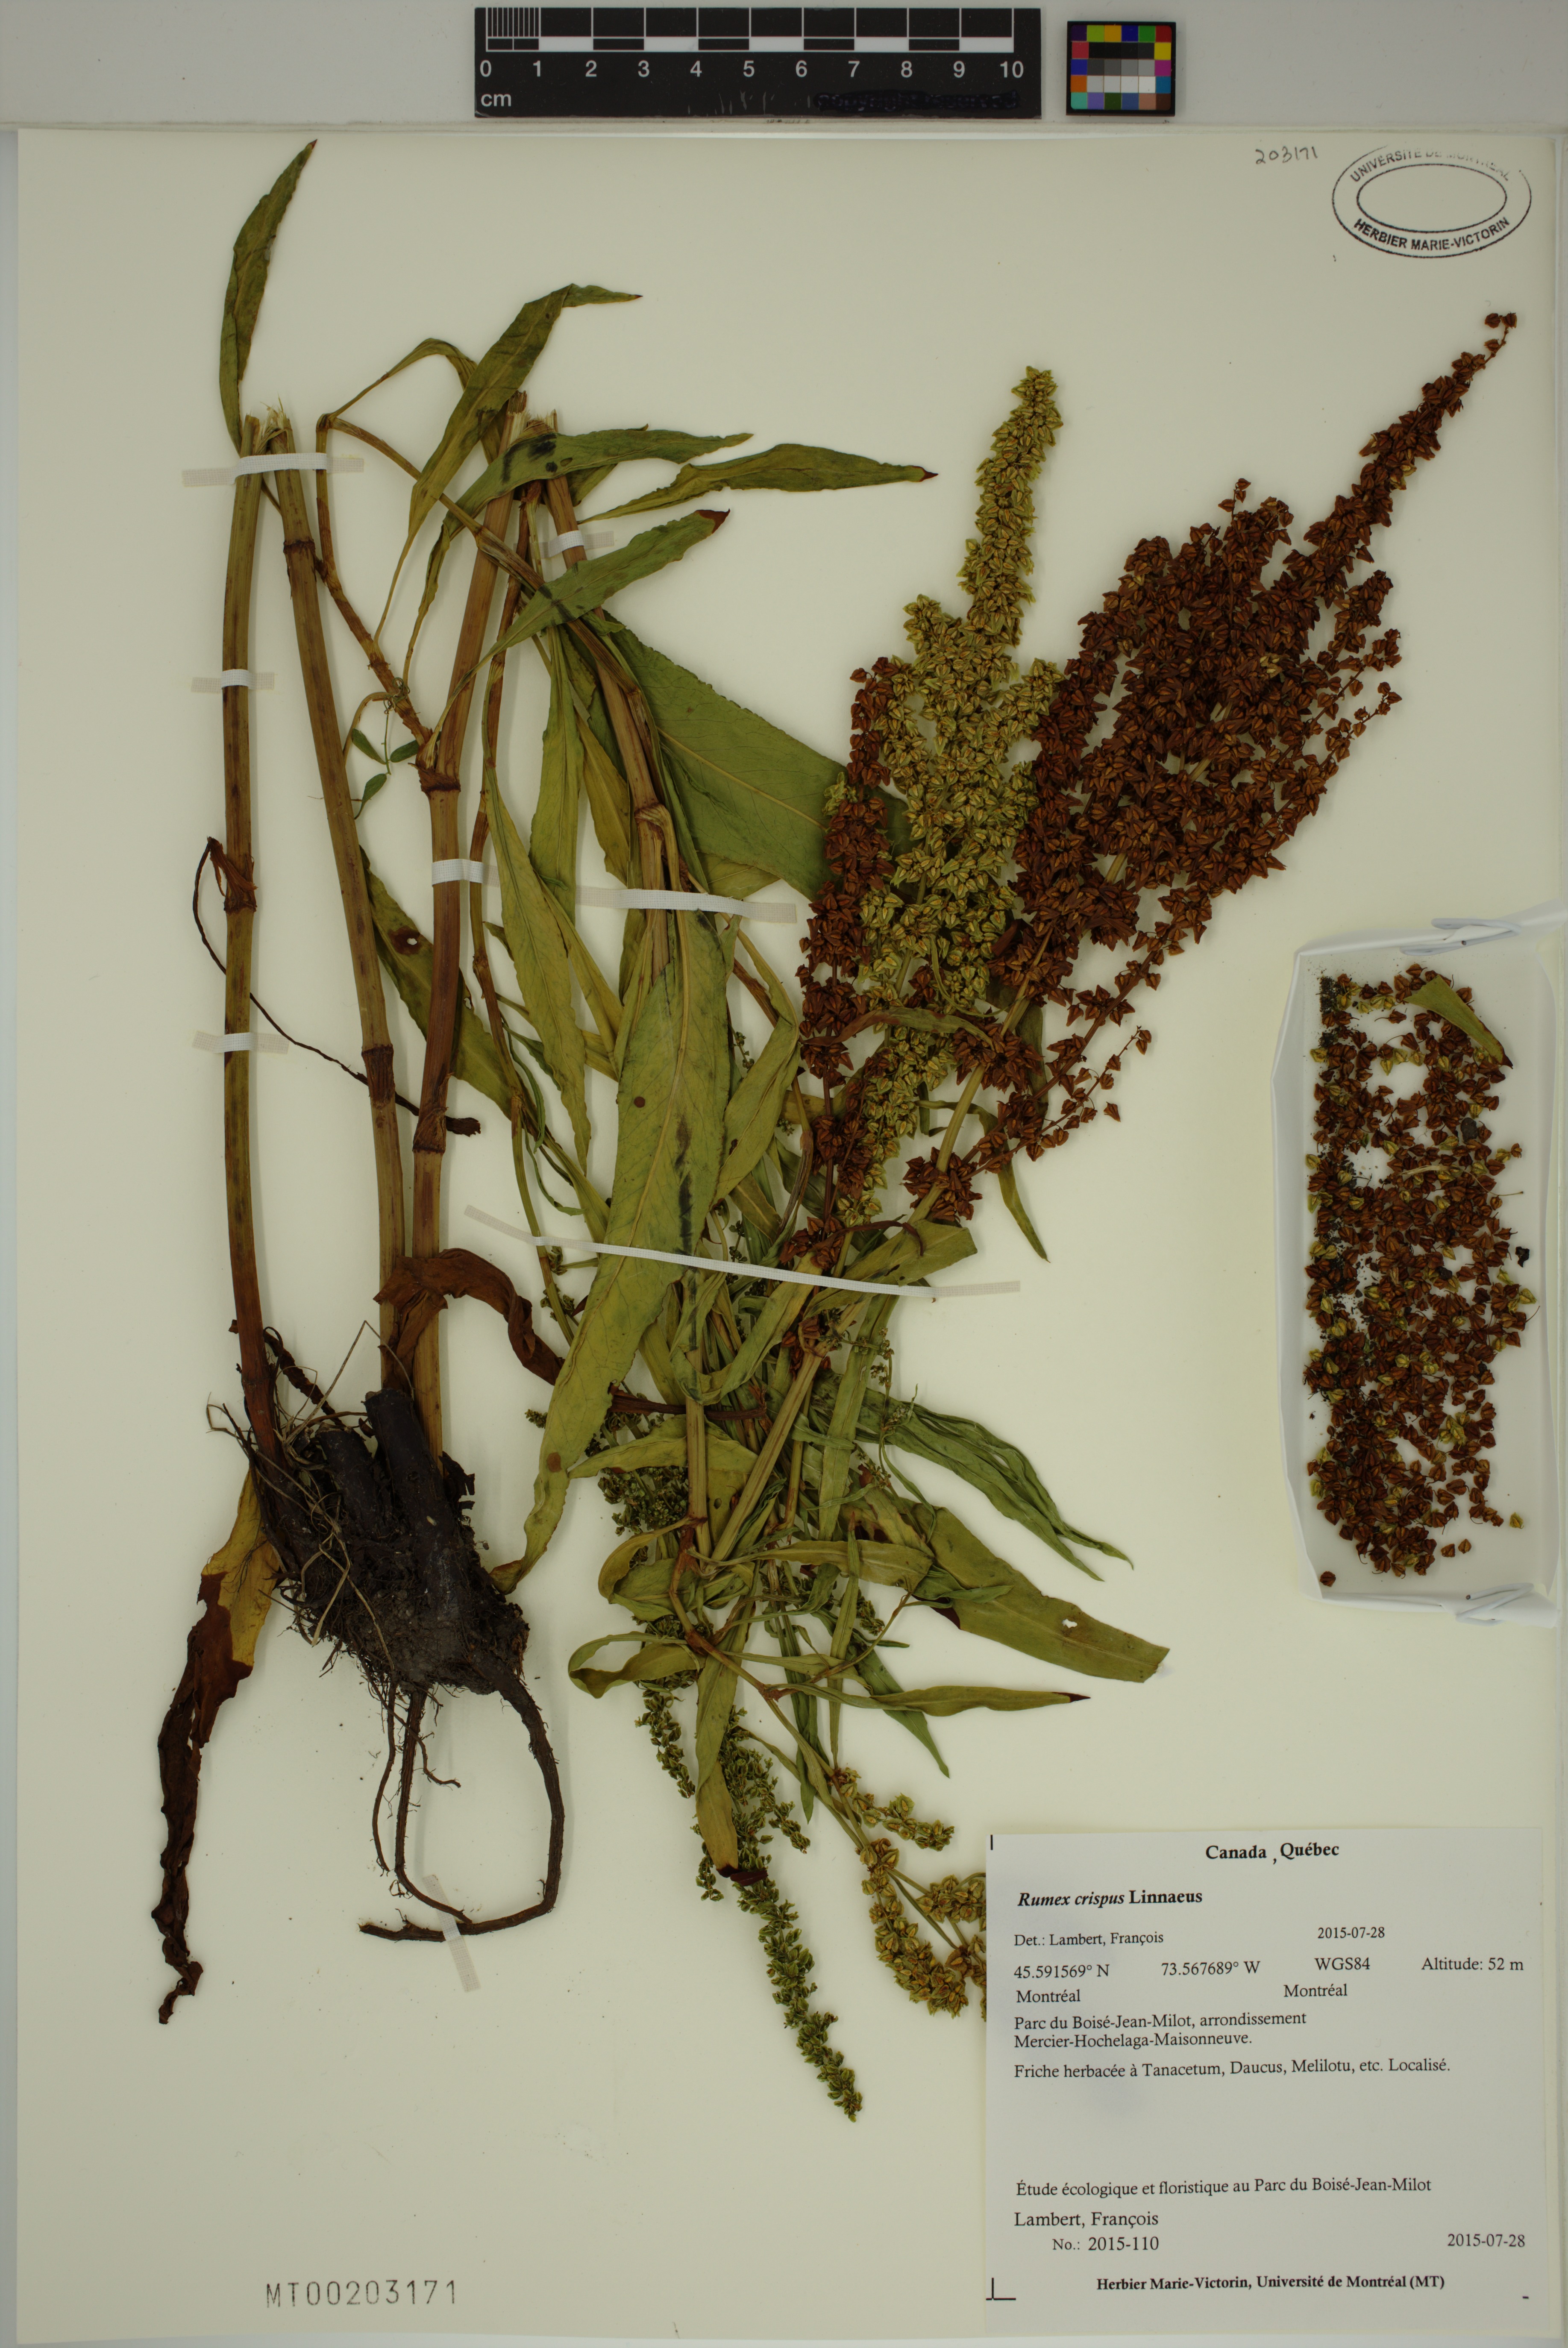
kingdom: Plantae
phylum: Tracheophyta
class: Magnoliopsida
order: Caryophyllales
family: Polygonaceae
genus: Rumex
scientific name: Rumex crispus
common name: Curled dock
